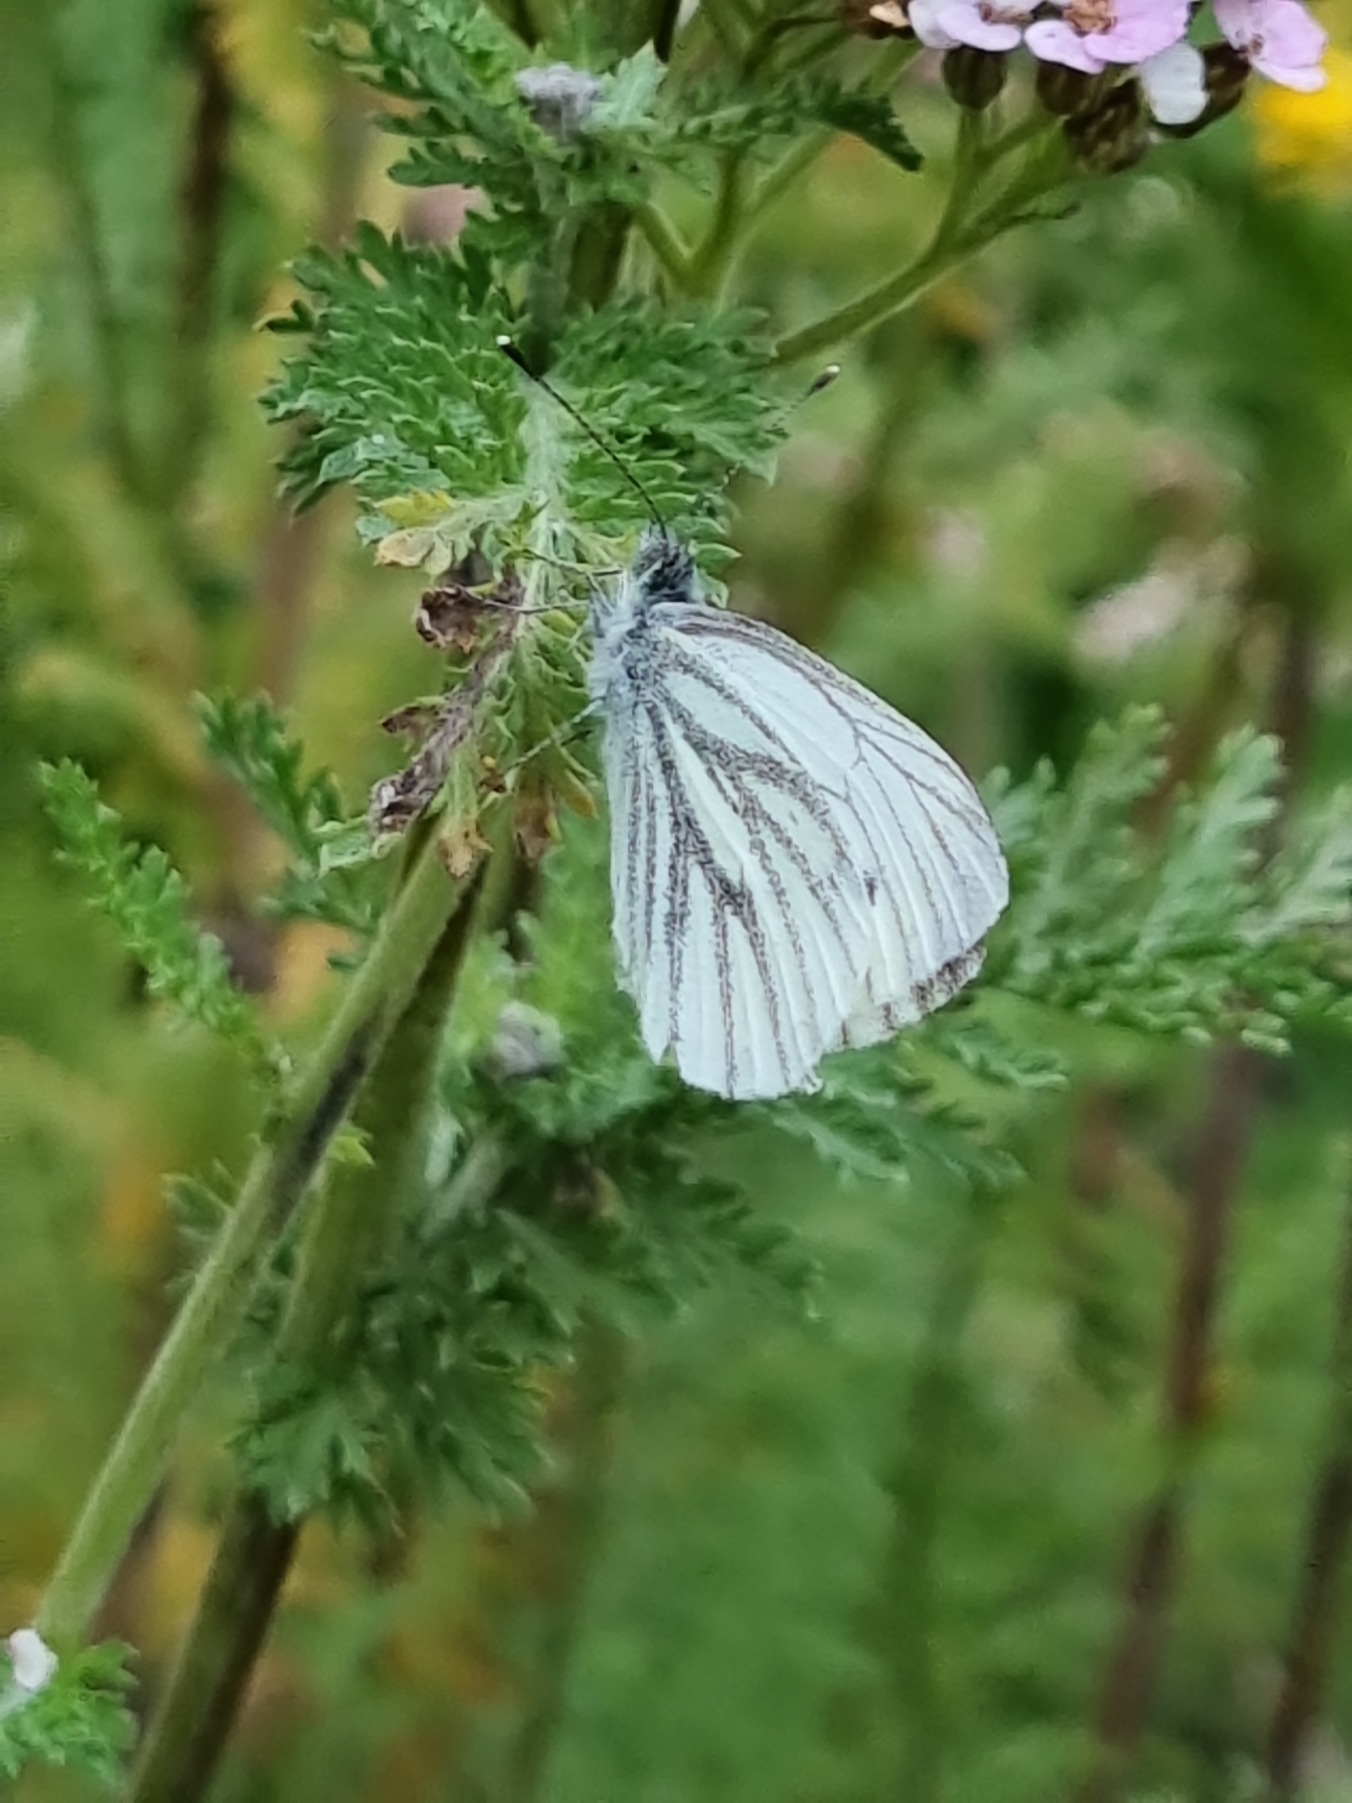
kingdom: Animalia
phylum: Arthropoda
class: Insecta
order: Lepidoptera
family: Pieridae
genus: Pieris
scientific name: Pieris napi
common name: Grønåret kålsommerfugl
